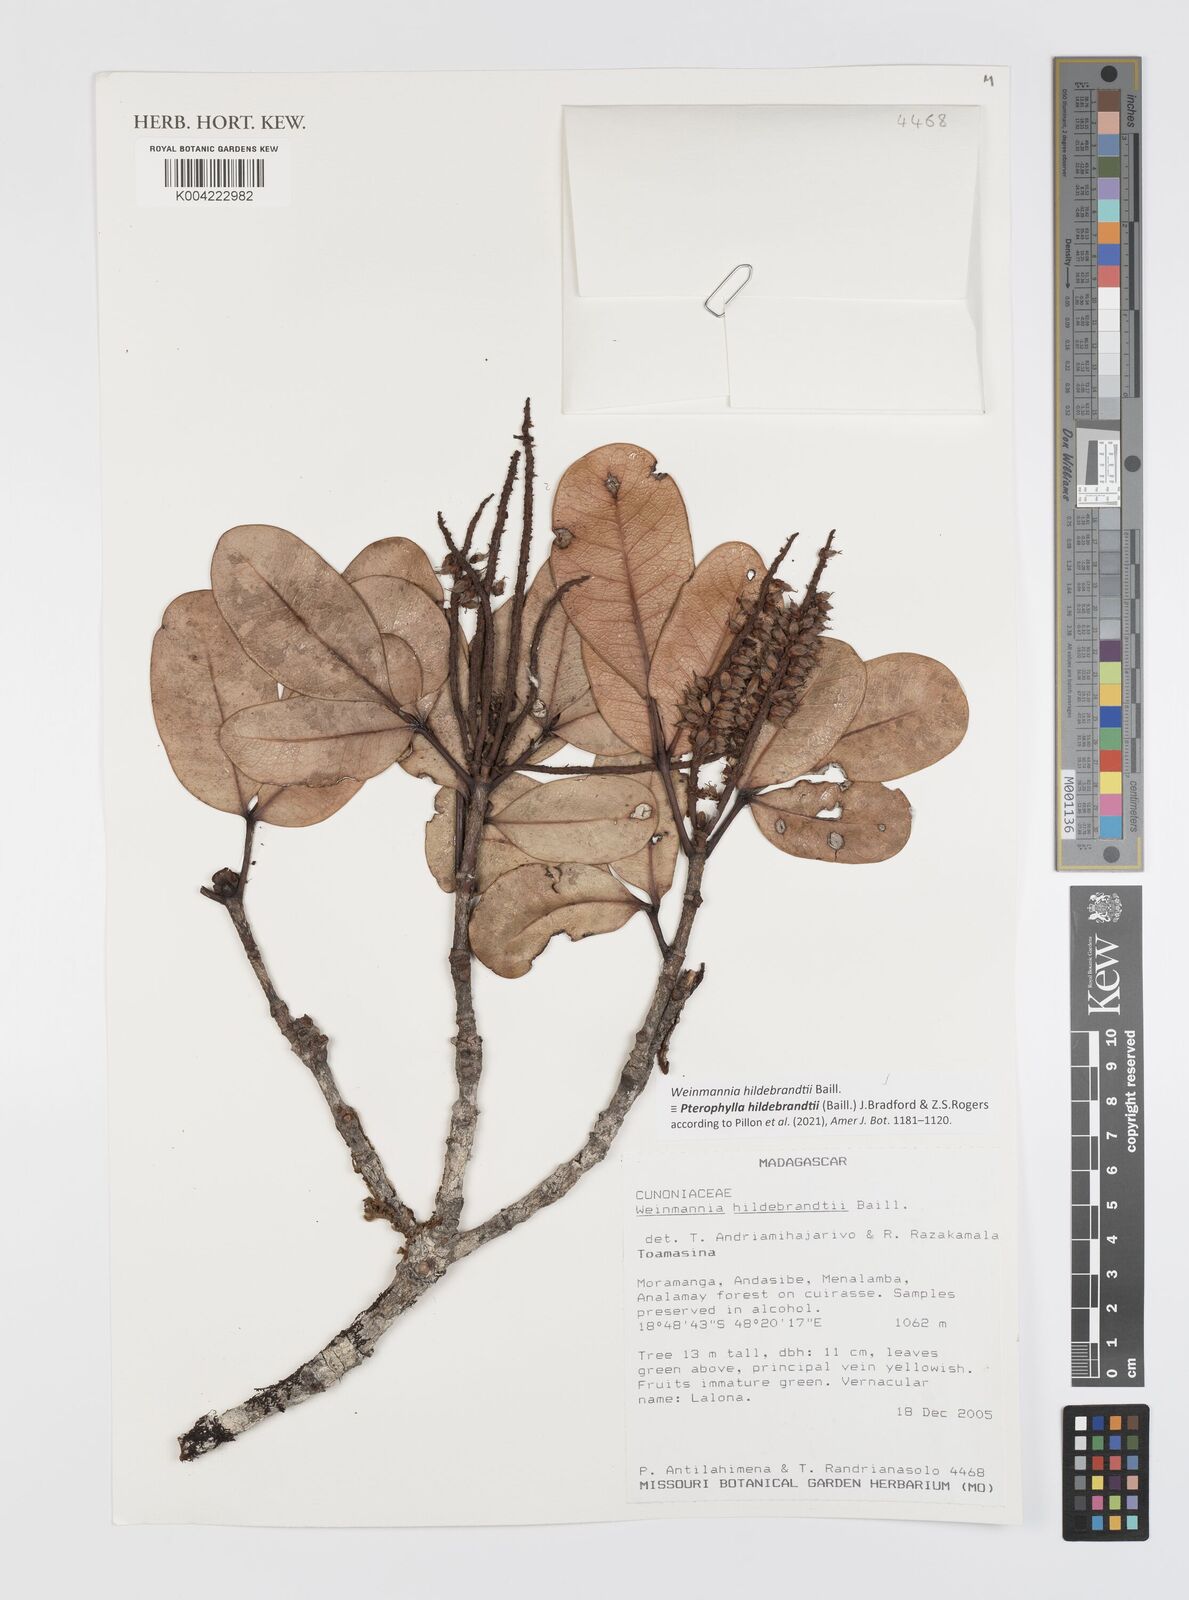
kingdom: Plantae
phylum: Tracheophyta
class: Magnoliopsida
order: Oxalidales
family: Cunoniaceae
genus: Pterophylla
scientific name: Pterophylla hildebrandtii
